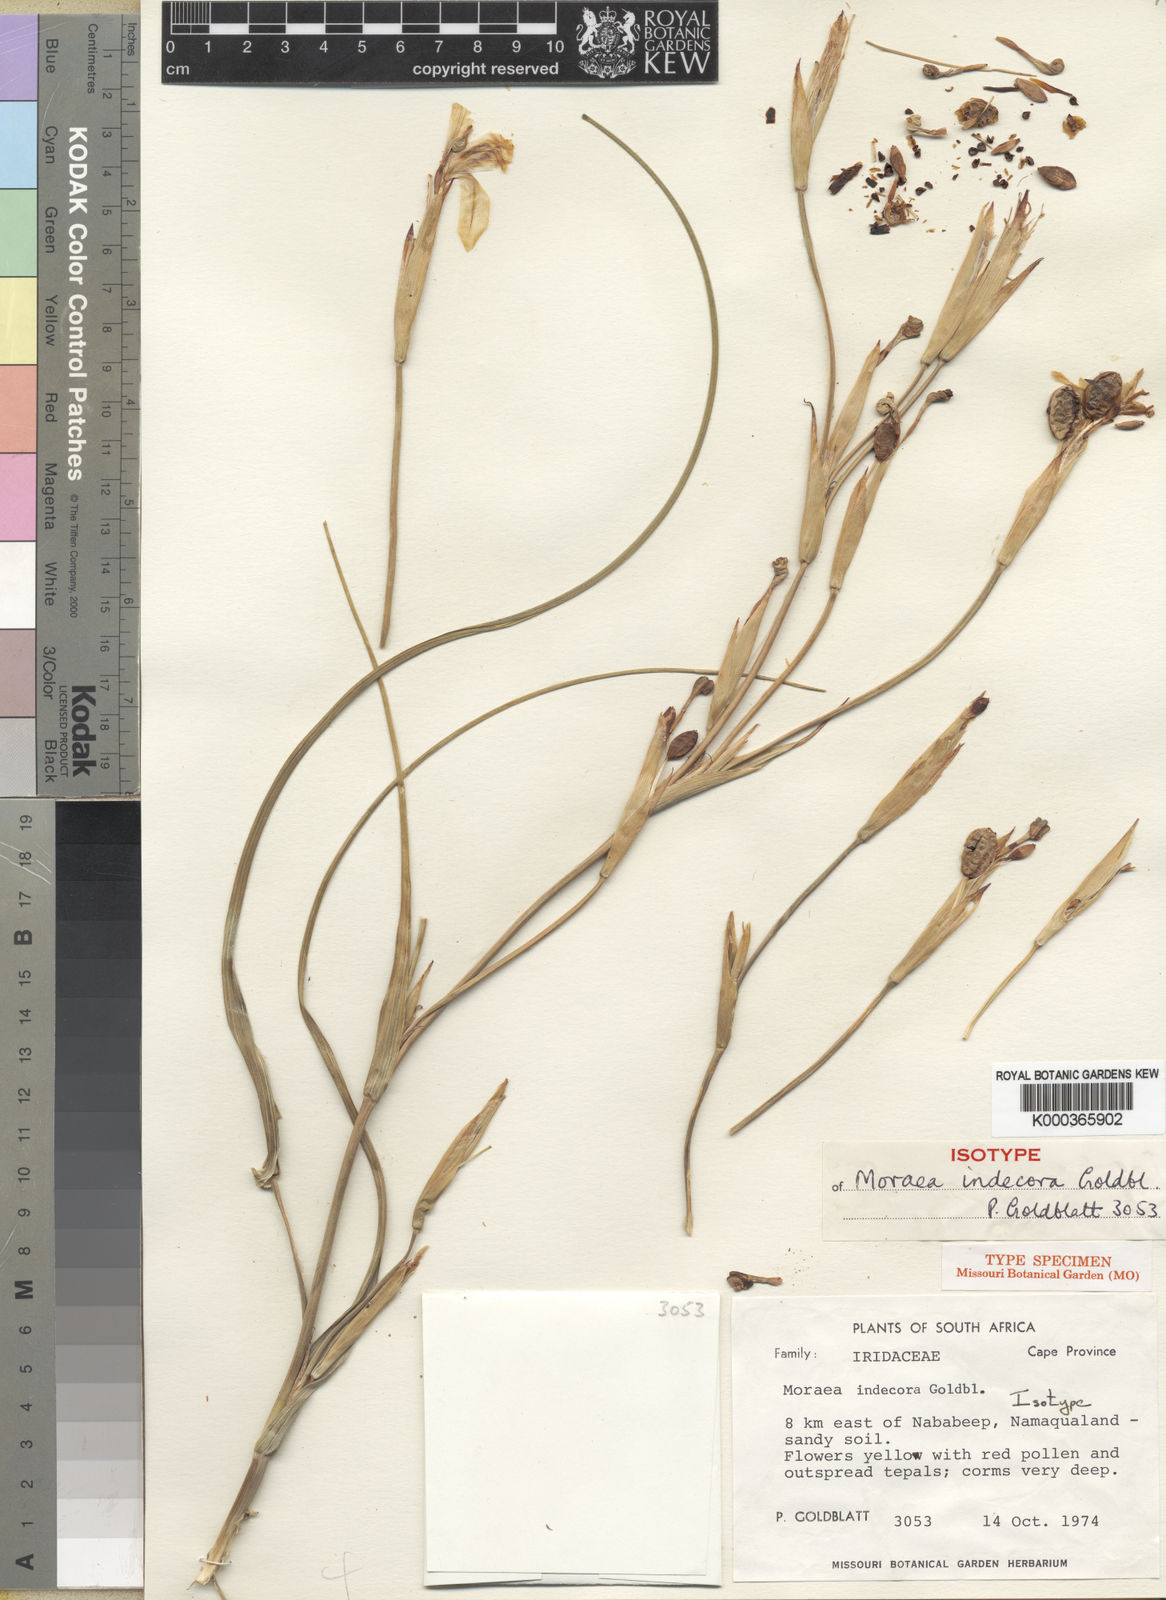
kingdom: Plantae
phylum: Tracheophyta
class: Liliopsida
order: Asparagales
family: Iridaceae
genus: Moraea
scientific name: Moraea indecora
